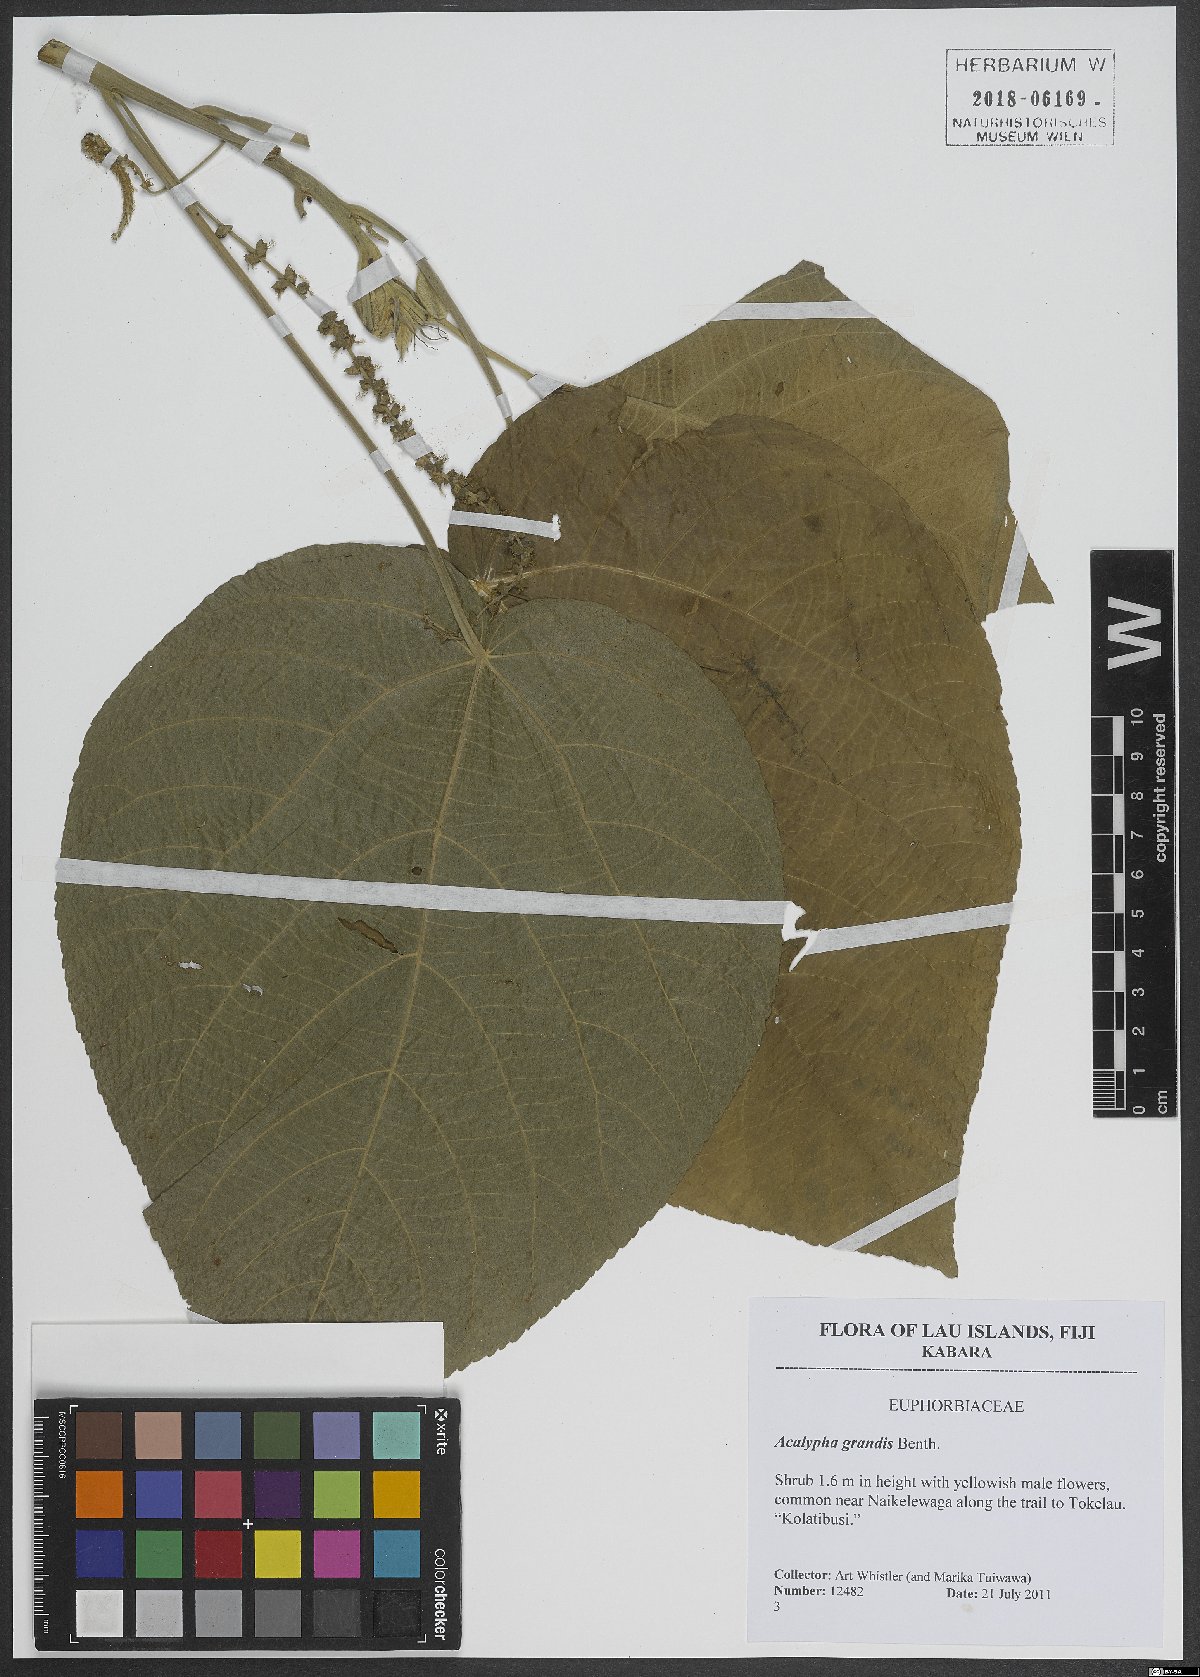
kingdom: Plantae
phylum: Tracheophyta
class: Magnoliopsida
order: Malpighiales
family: Euphorbiaceae
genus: Acalypha
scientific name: Acalypha grandis
